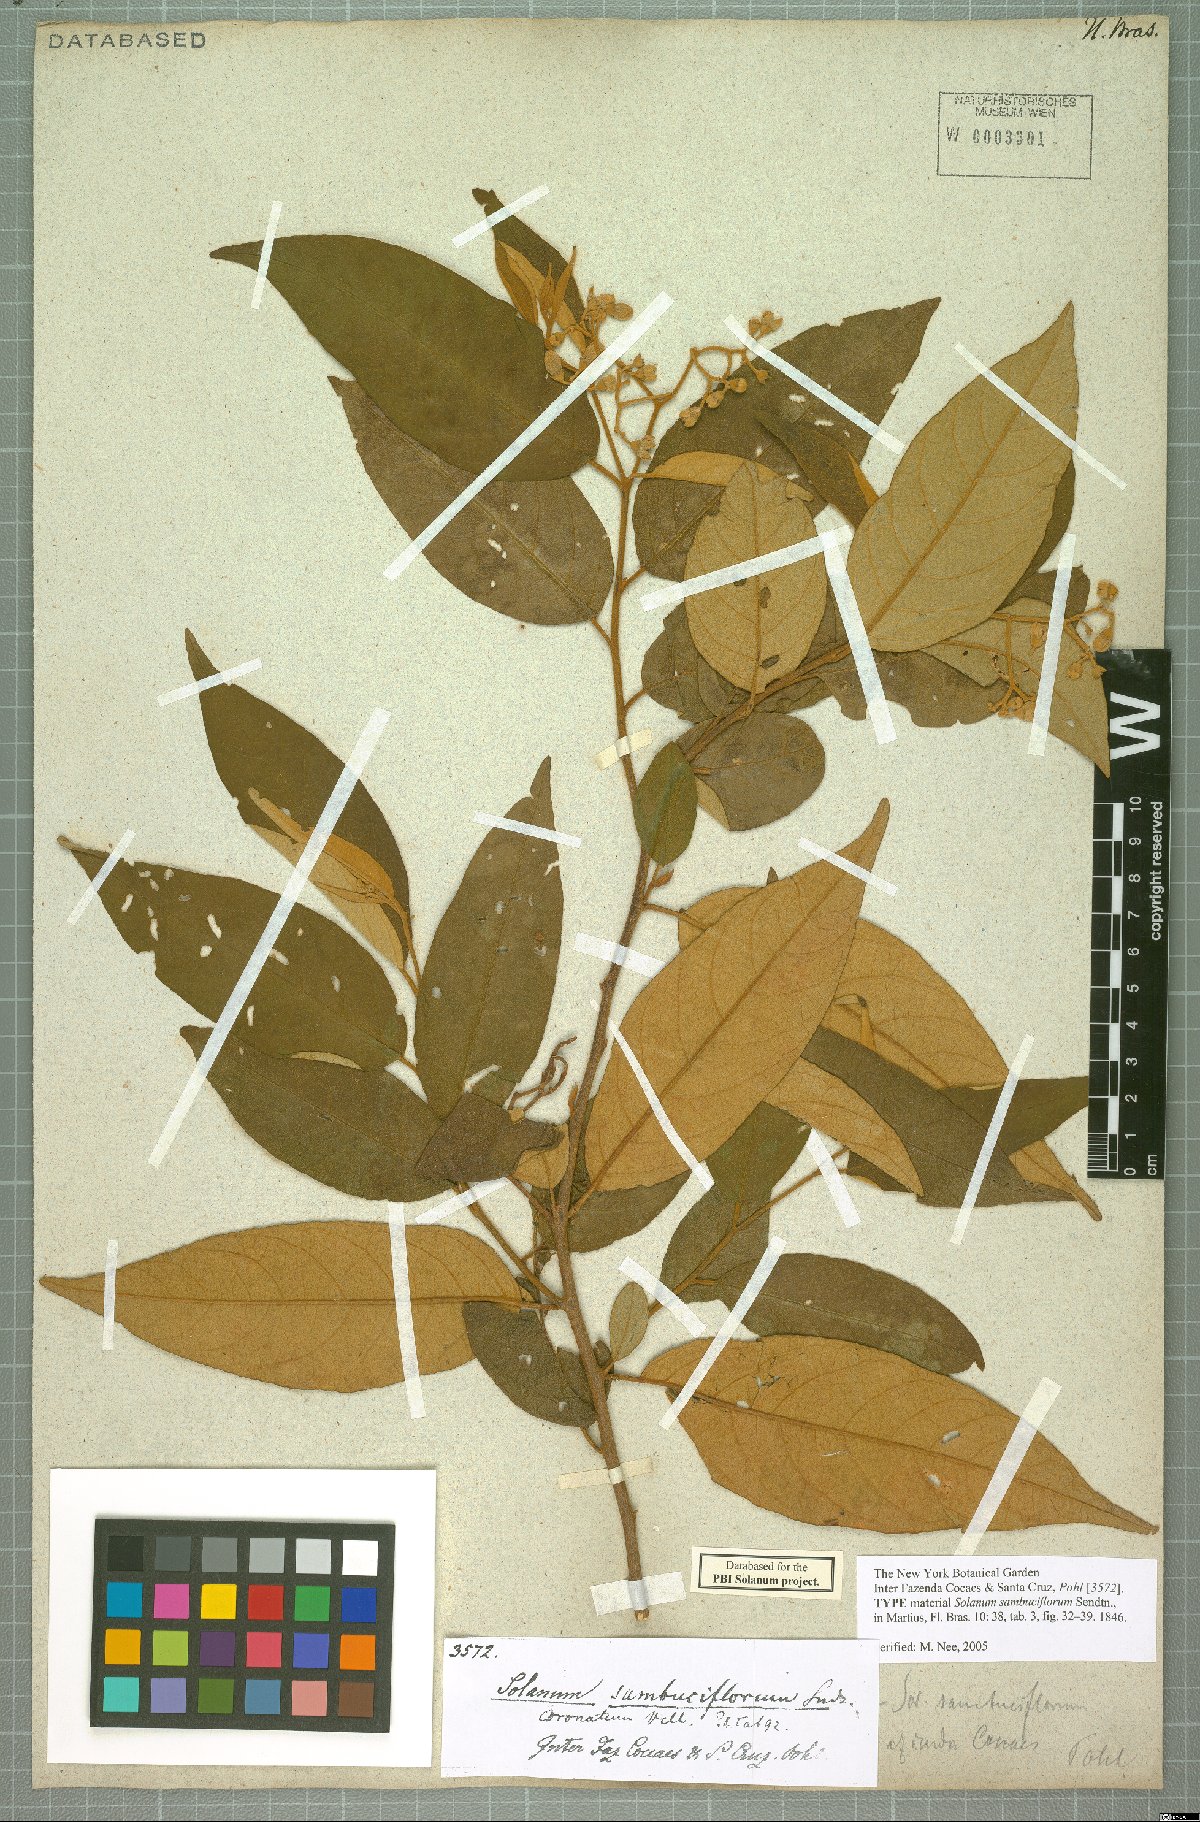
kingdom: Plantae
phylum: Tracheophyta
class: Magnoliopsida
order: Solanales
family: Solanaceae
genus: Solanum
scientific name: Solanum sambuciflorum
